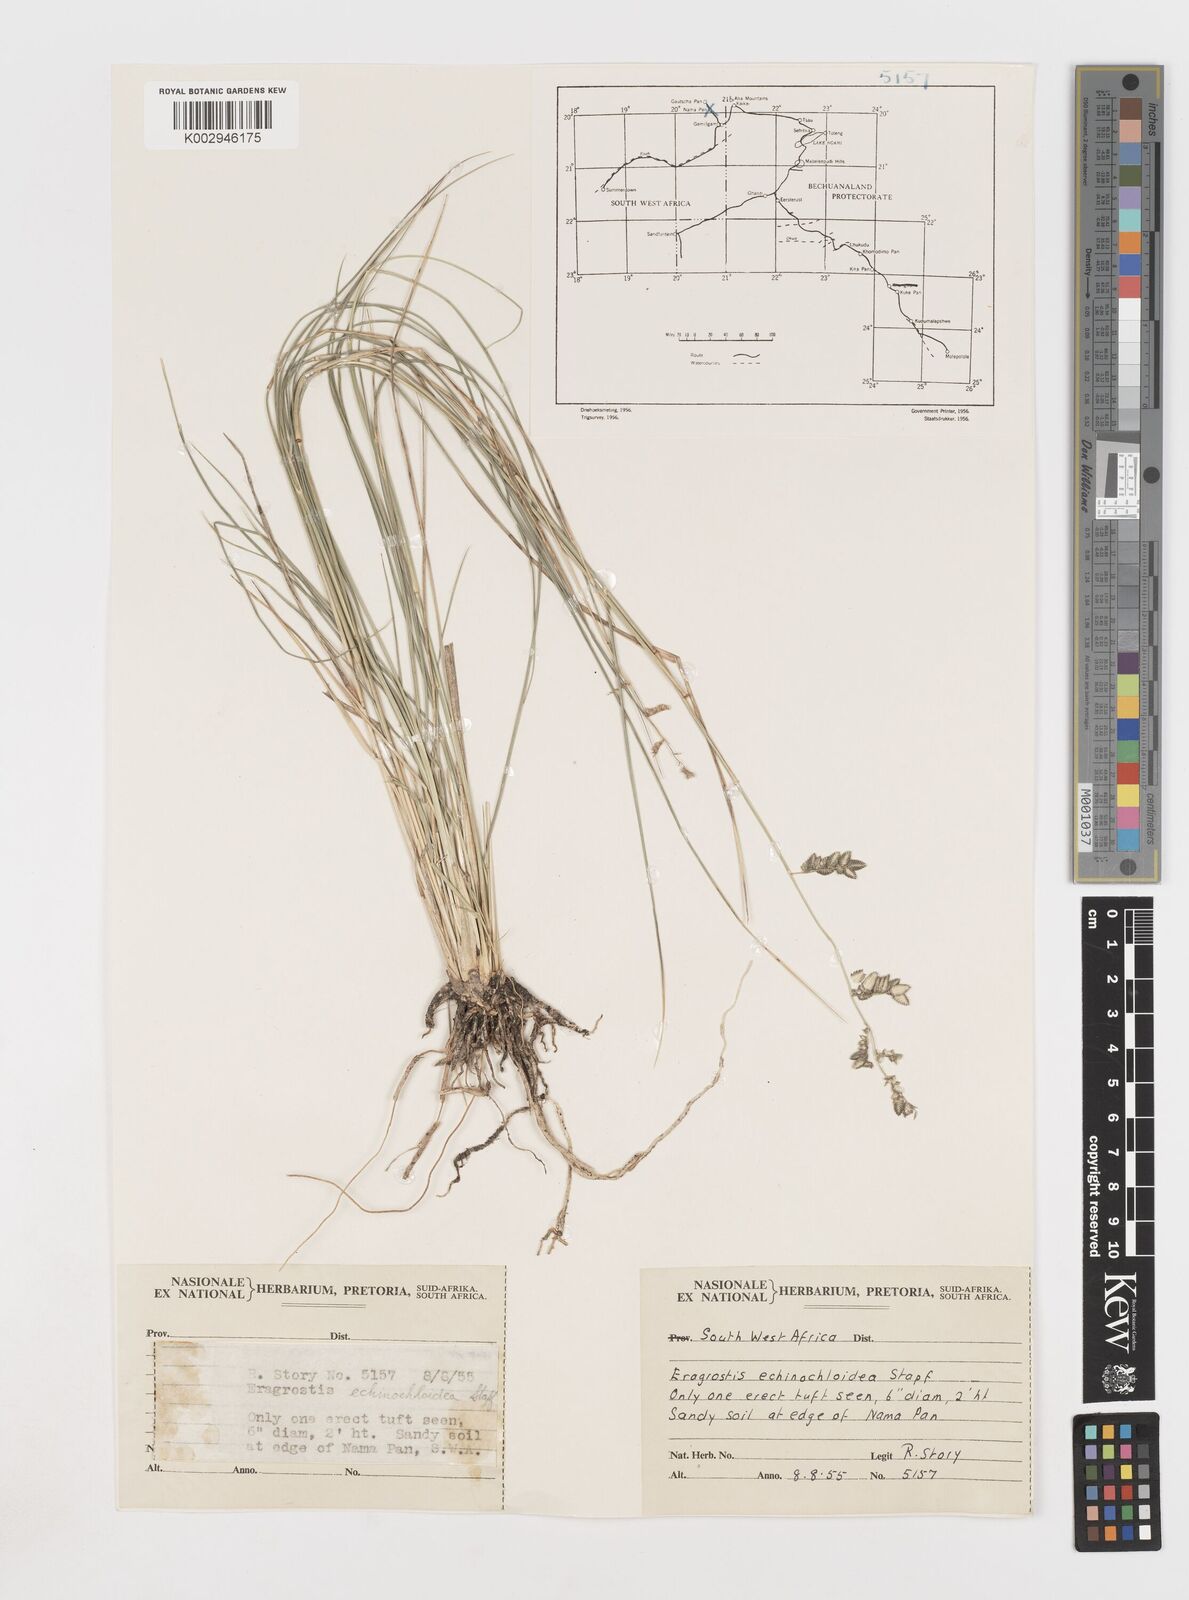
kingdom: Plantae
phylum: Tracheophyta
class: Liliopsida
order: Poales
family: Poaceae
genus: Eragrostis
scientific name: Eragrostis echinochloidea
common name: African lovegrass
